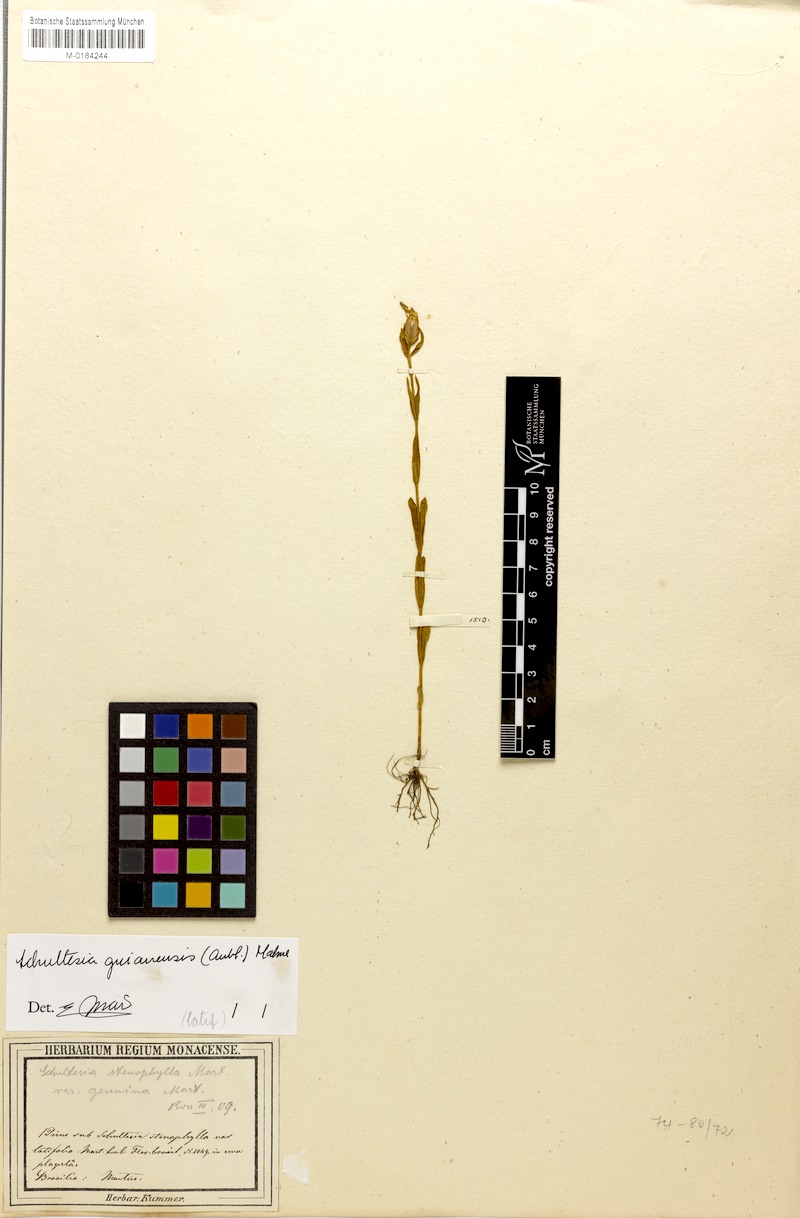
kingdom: Plantae
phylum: Tracheophyta
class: Magnoliopsida
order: Gentianales
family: Gentianaceae
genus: Schultesia
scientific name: Schultesia guianensis
